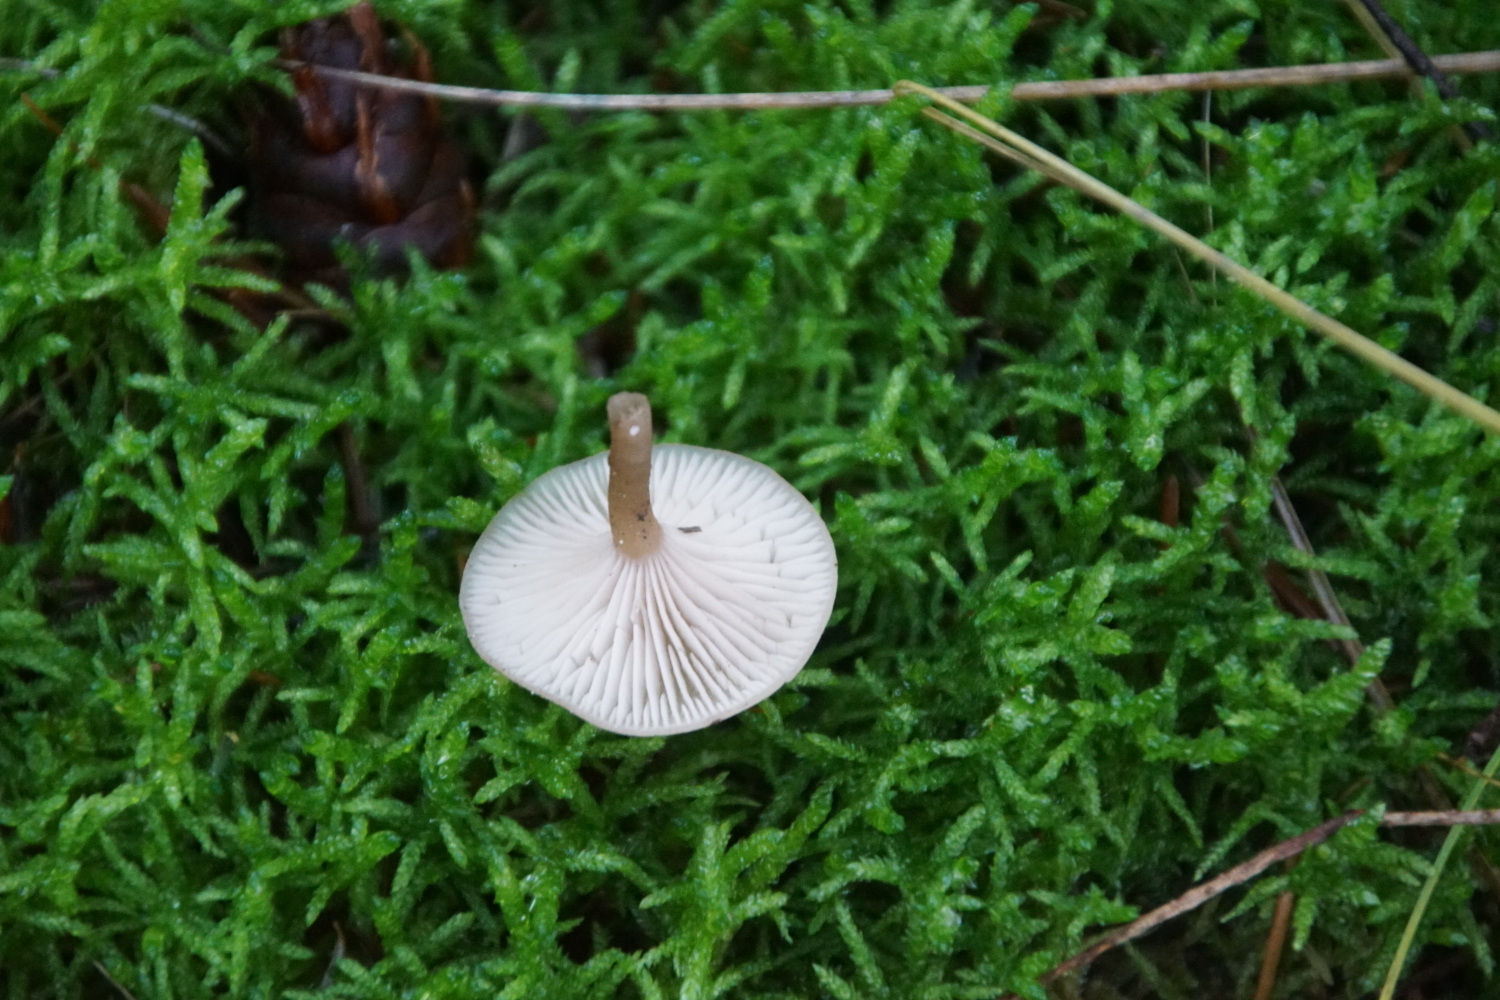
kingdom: Fungi
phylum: Basidiomycota
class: Agaricomycetes
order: Agaricales
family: Tricholomataceae
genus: Clitocybe
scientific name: Clitocybe fragrans
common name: vellugtende tragthat
